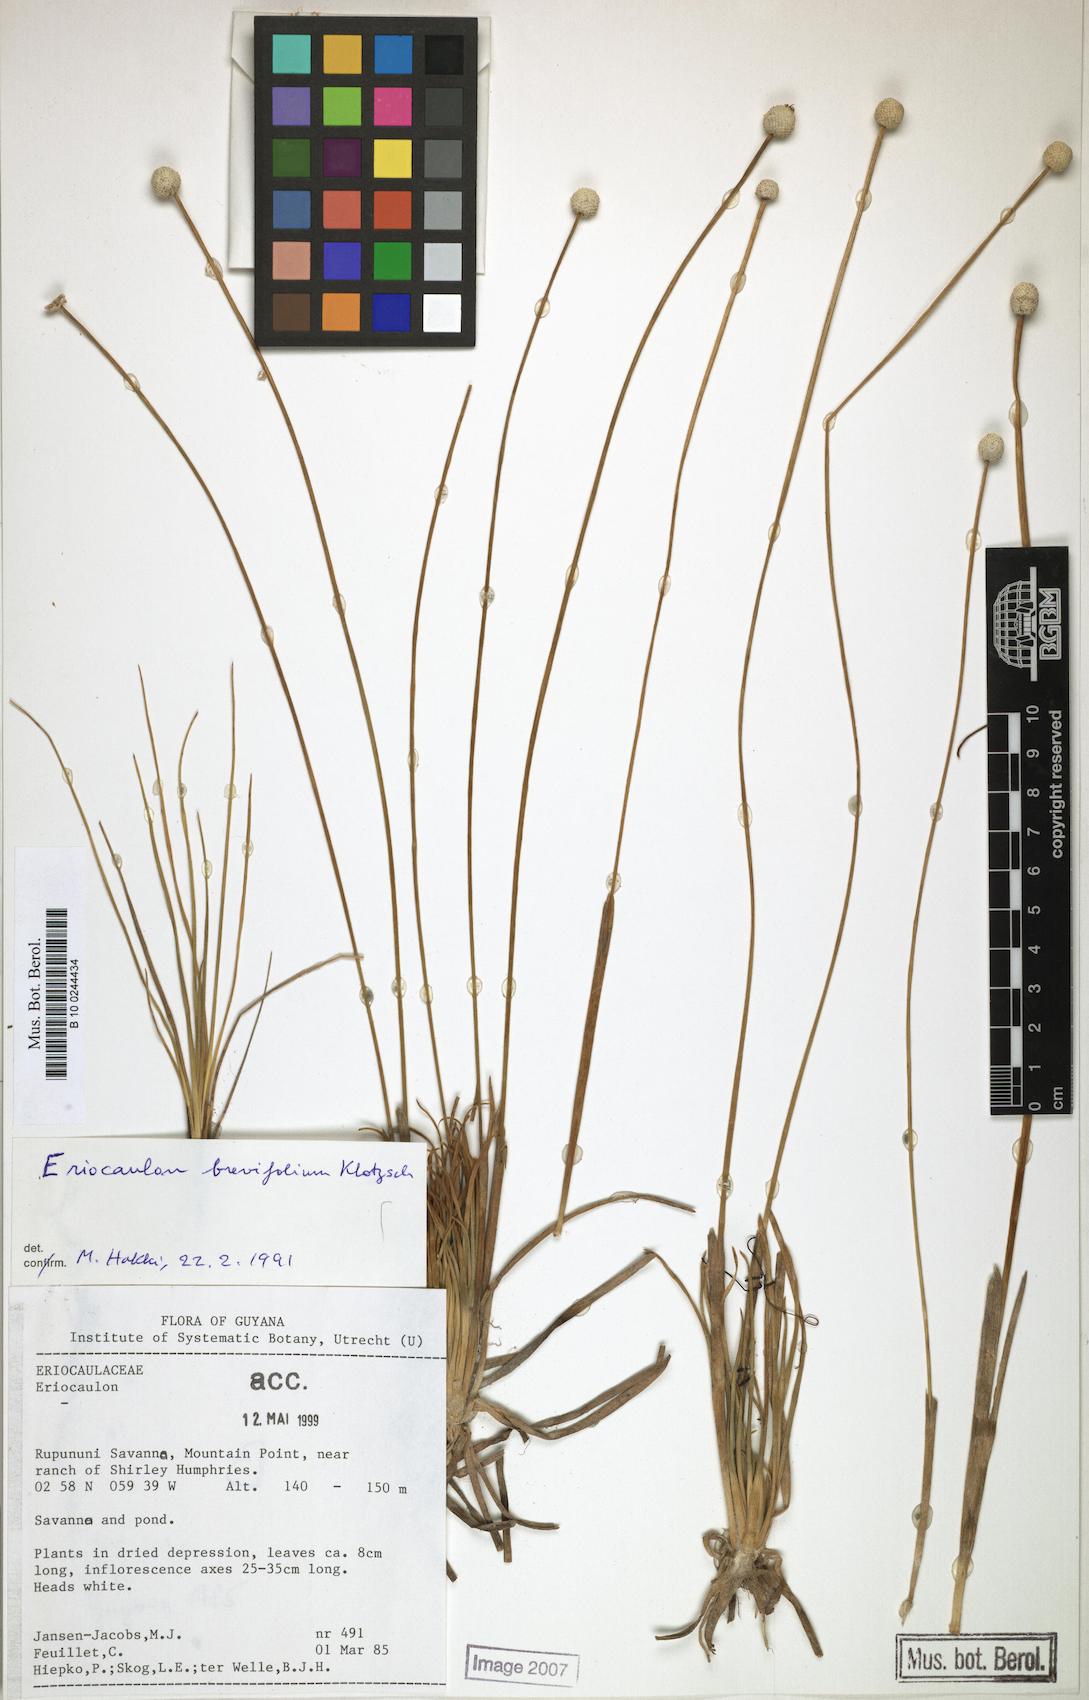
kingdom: Plantae
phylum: Tracheophyta
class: Liliopsida
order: Poales
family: Eriocaulaceae
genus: Eriocaulon
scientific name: Eriocaulon sellowianum
